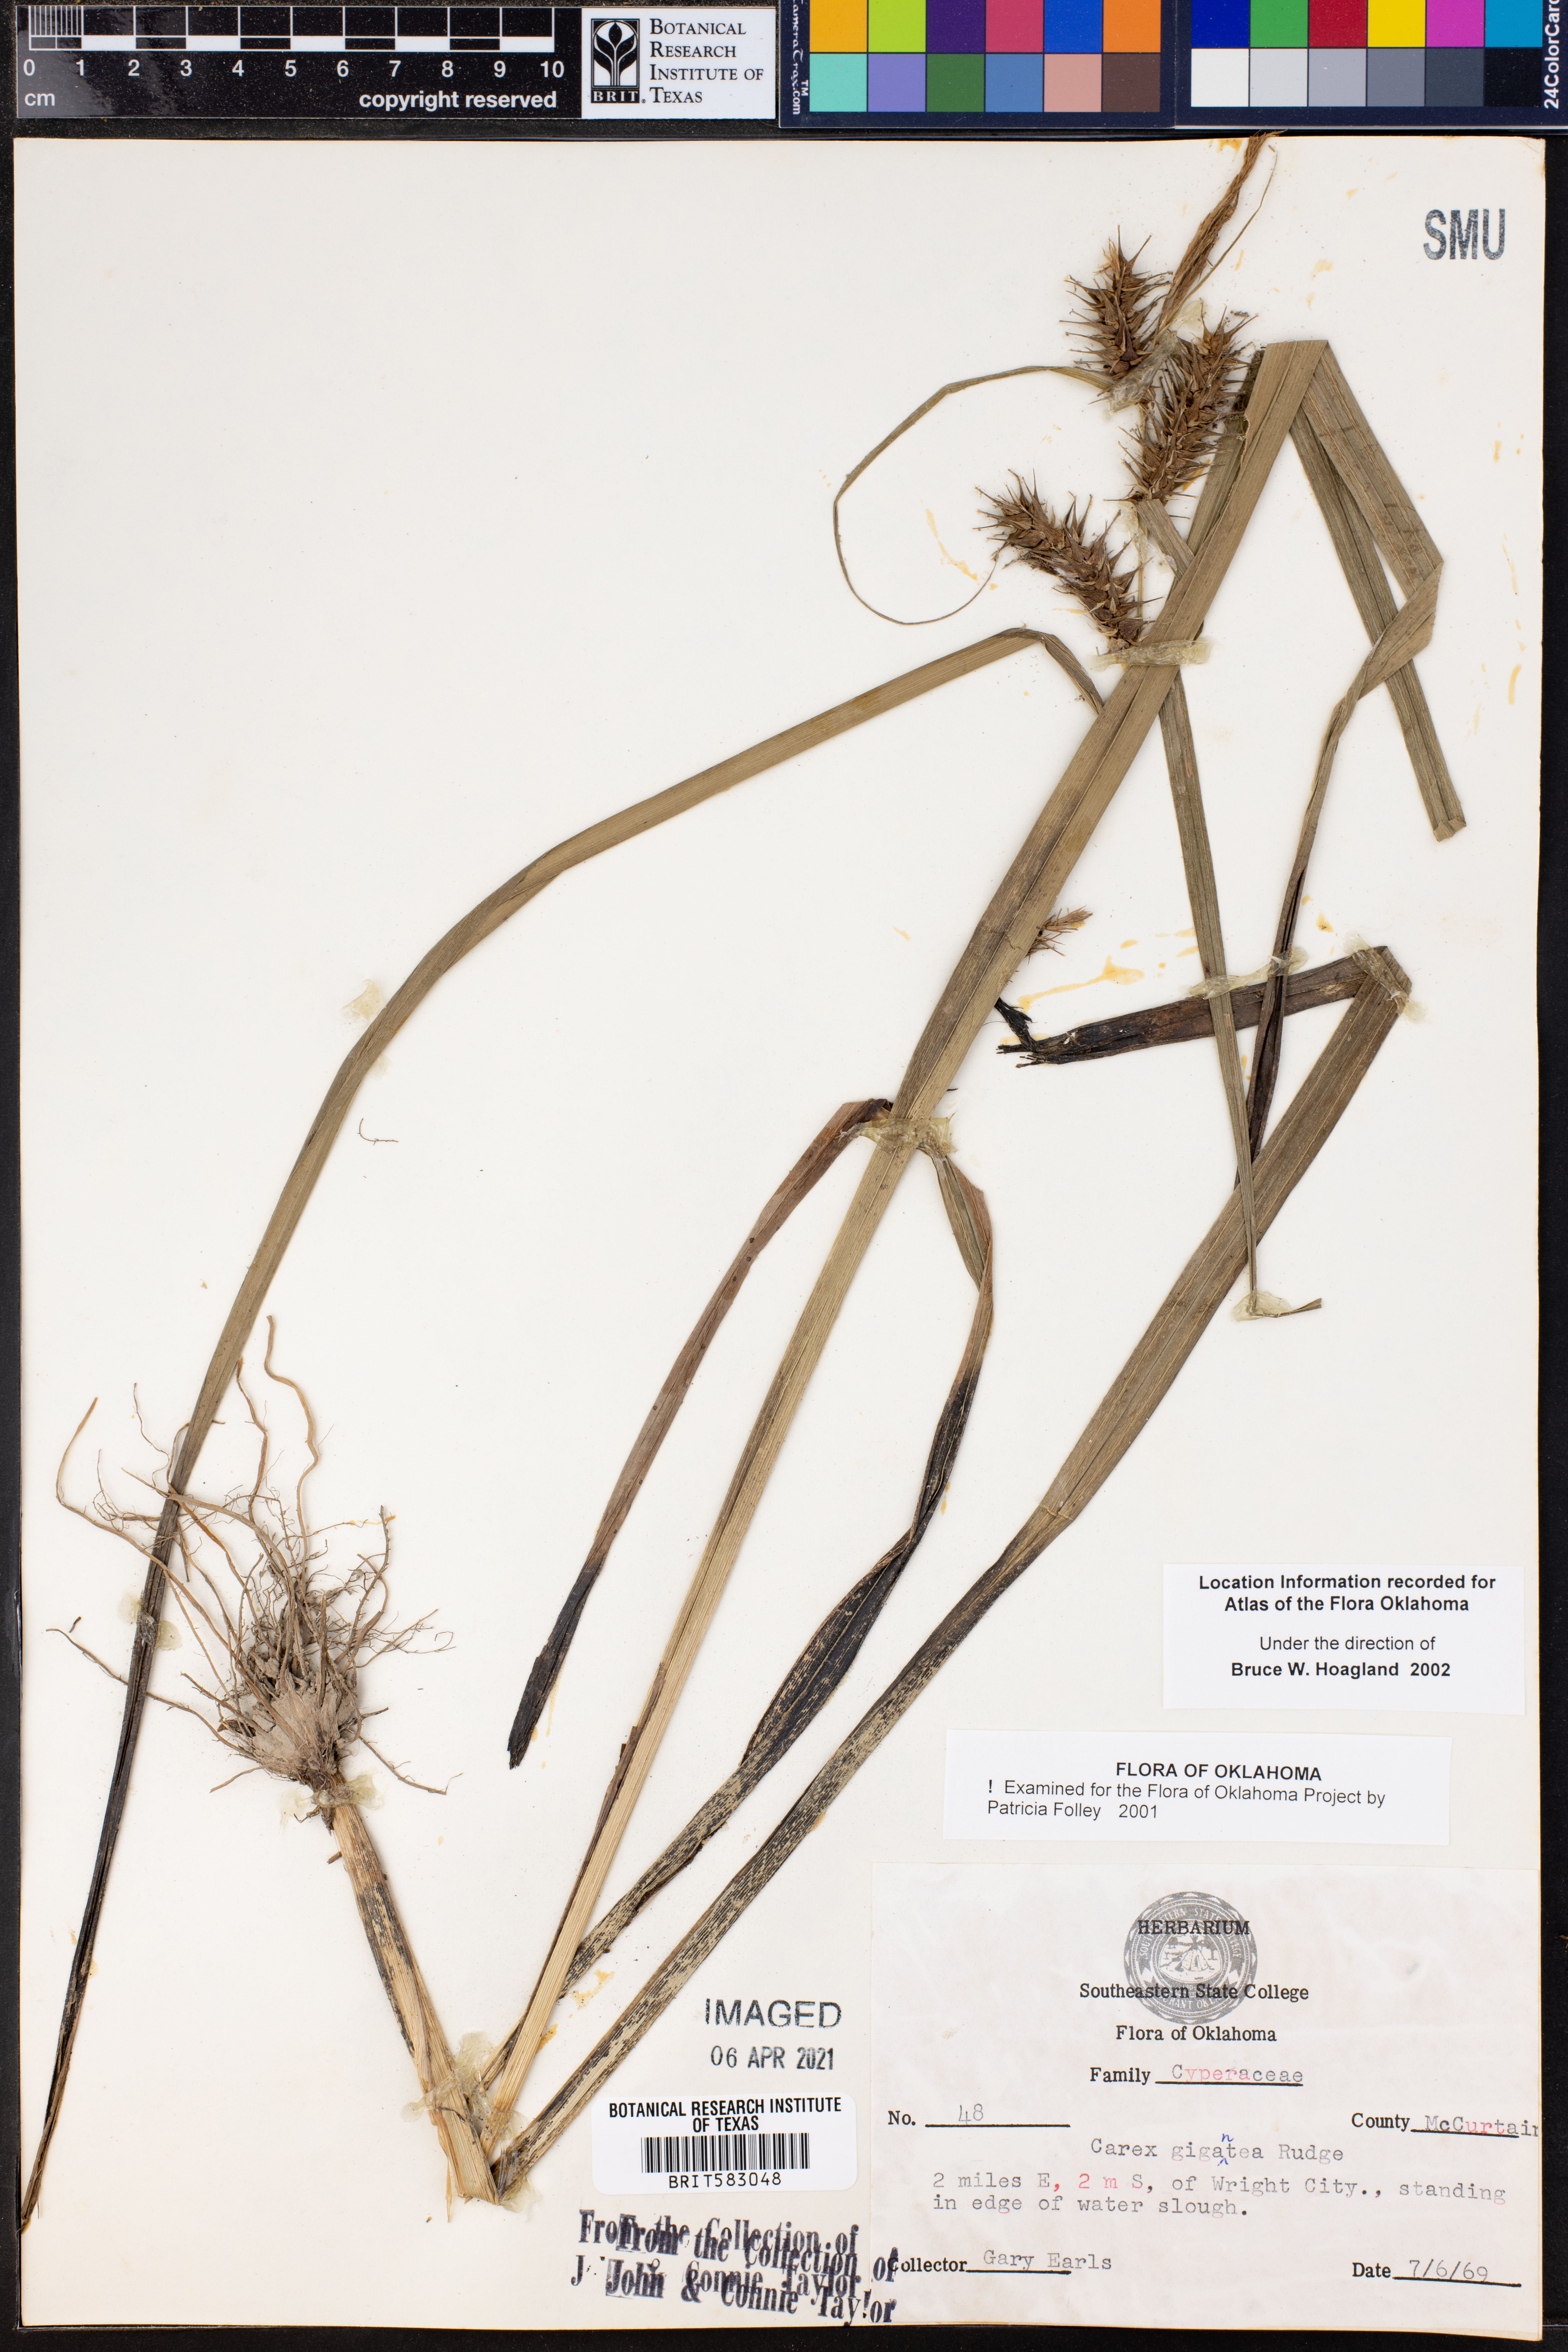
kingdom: Plantae
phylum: Tracheophyta
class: Liliopsida
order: Poales
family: Cyperaceae
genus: Carex
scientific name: Carex gigantea
